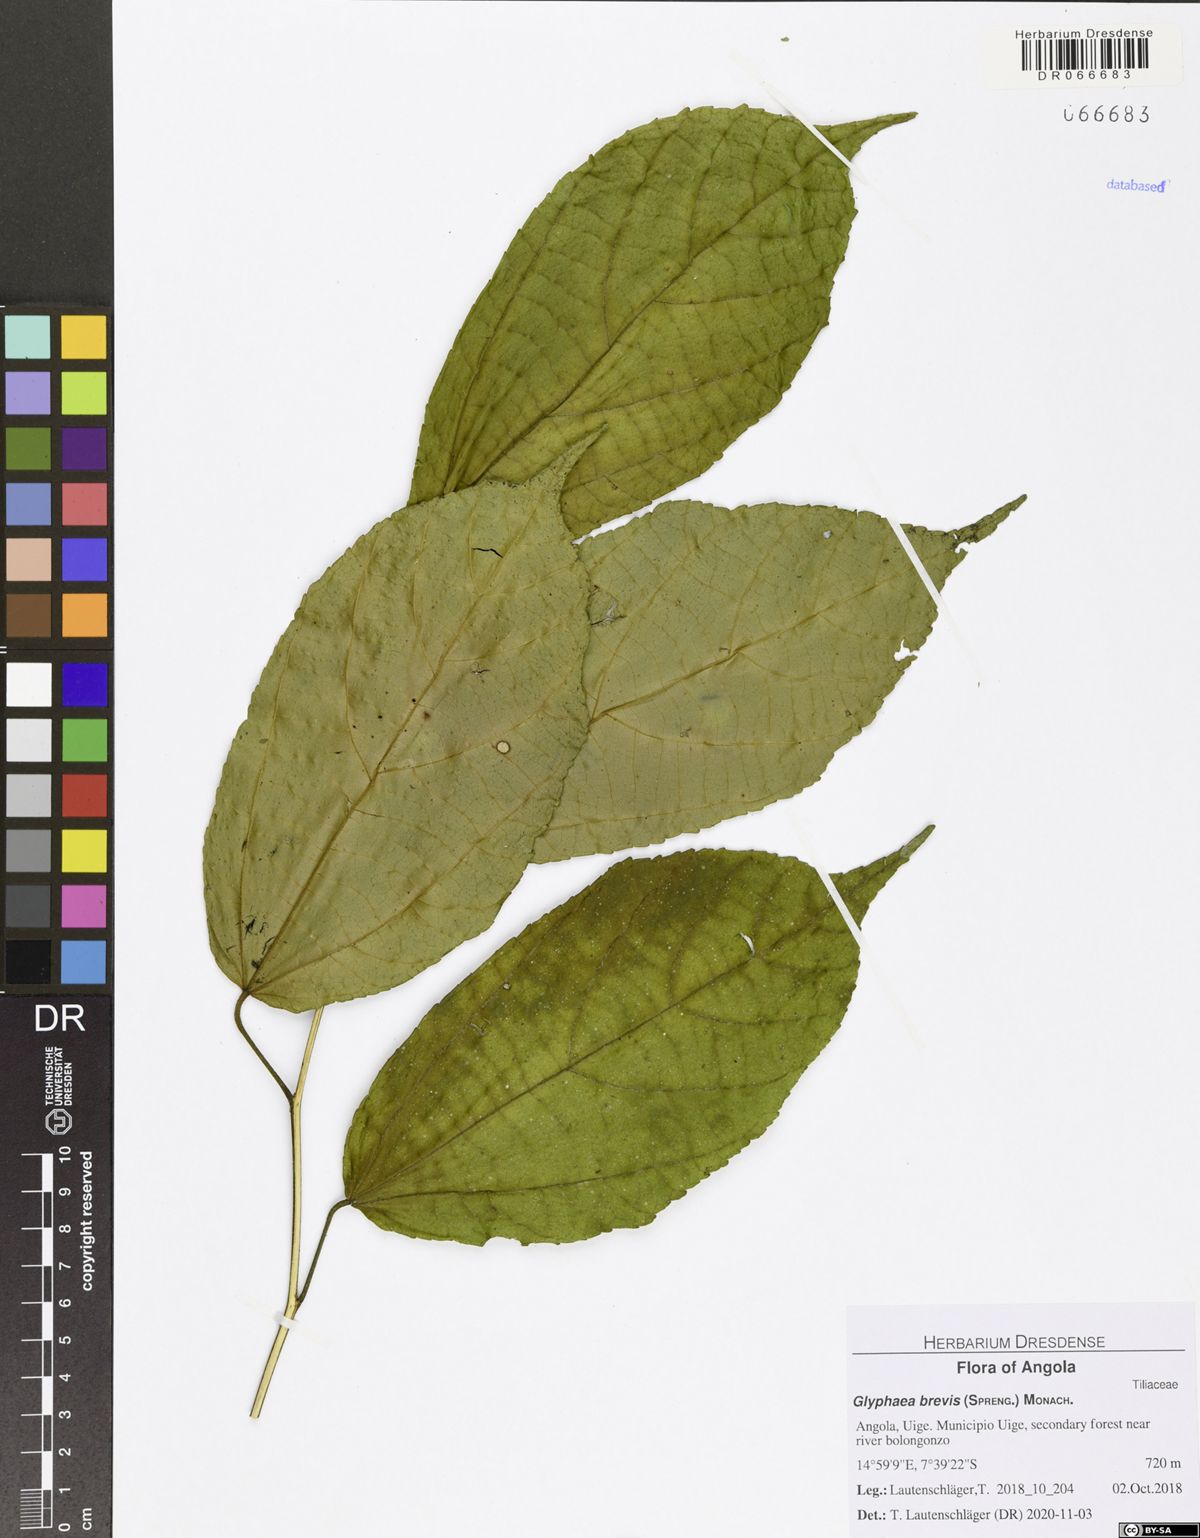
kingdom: Plantae
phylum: Tracheophyta
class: Magnoliopsida
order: Malvales
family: Malvaceae
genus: Glyphaea
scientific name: Glyphaea brevis
